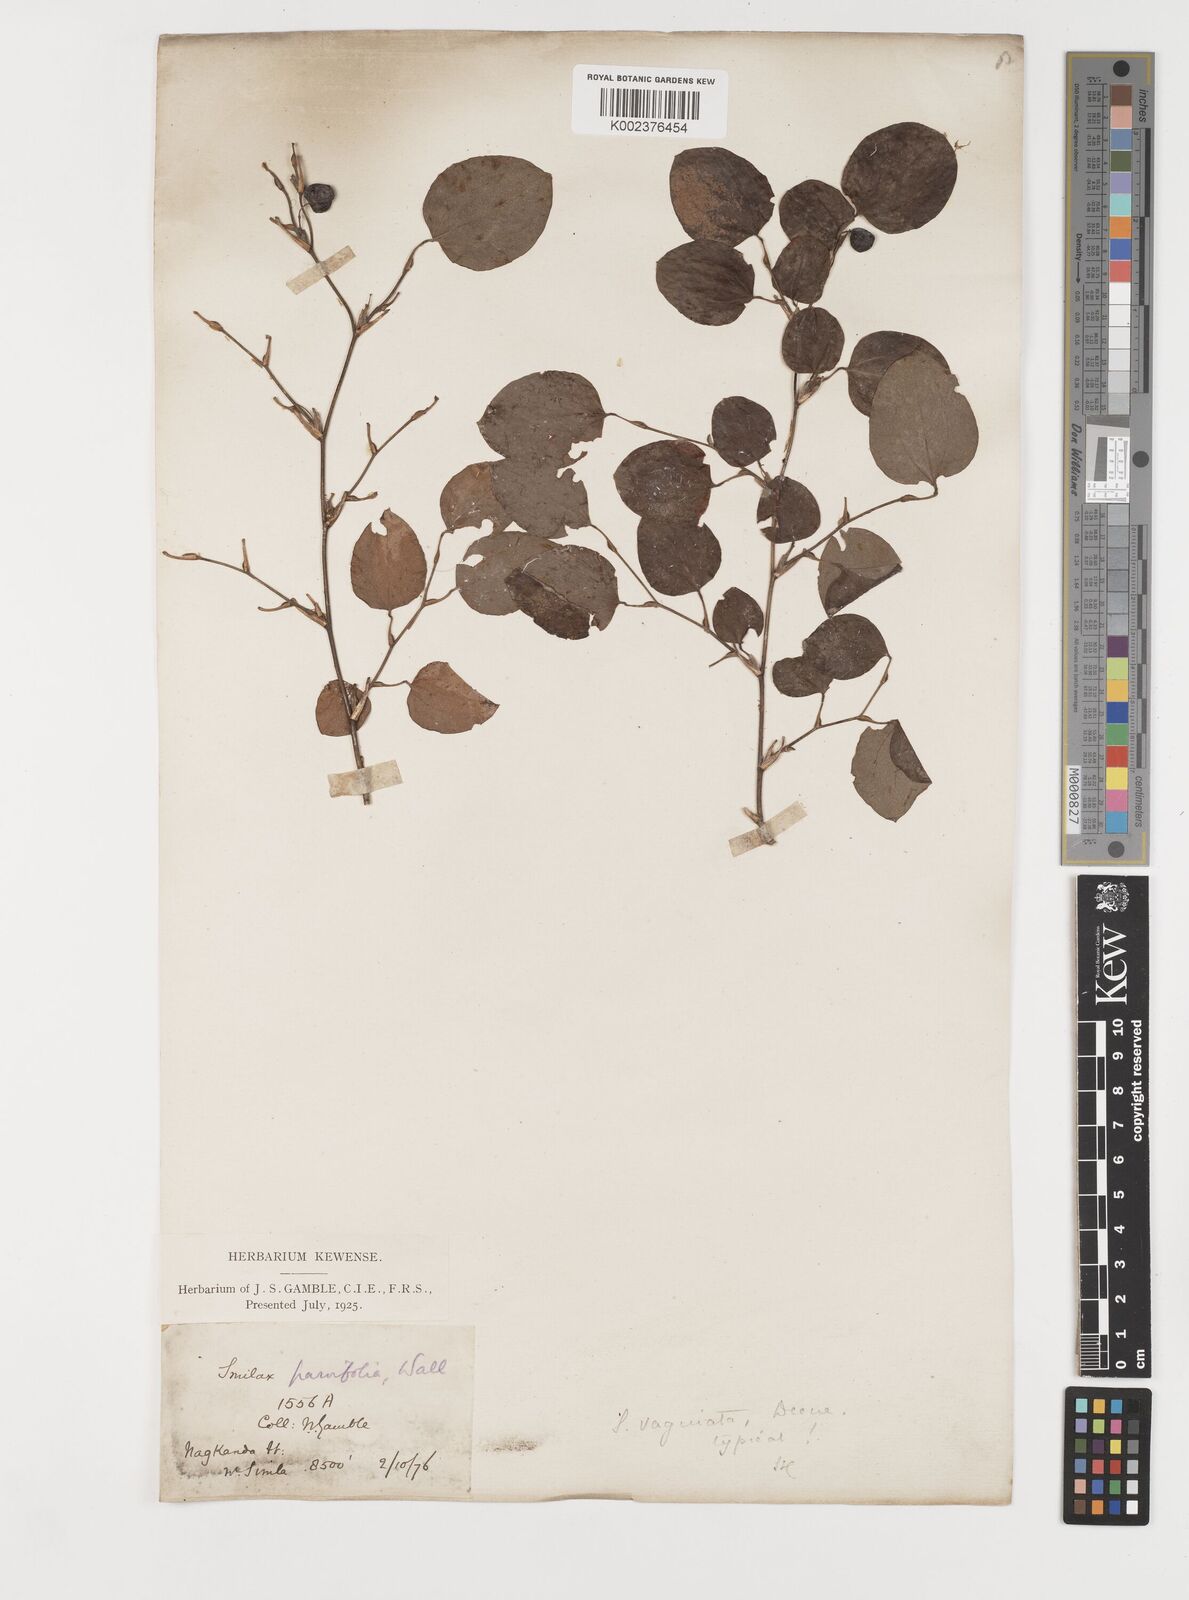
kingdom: Plantae
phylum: Tracheophyta
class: Liliopsida
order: Liliales
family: Smilacaceae
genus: Smilax
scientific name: Smilax vaginata
